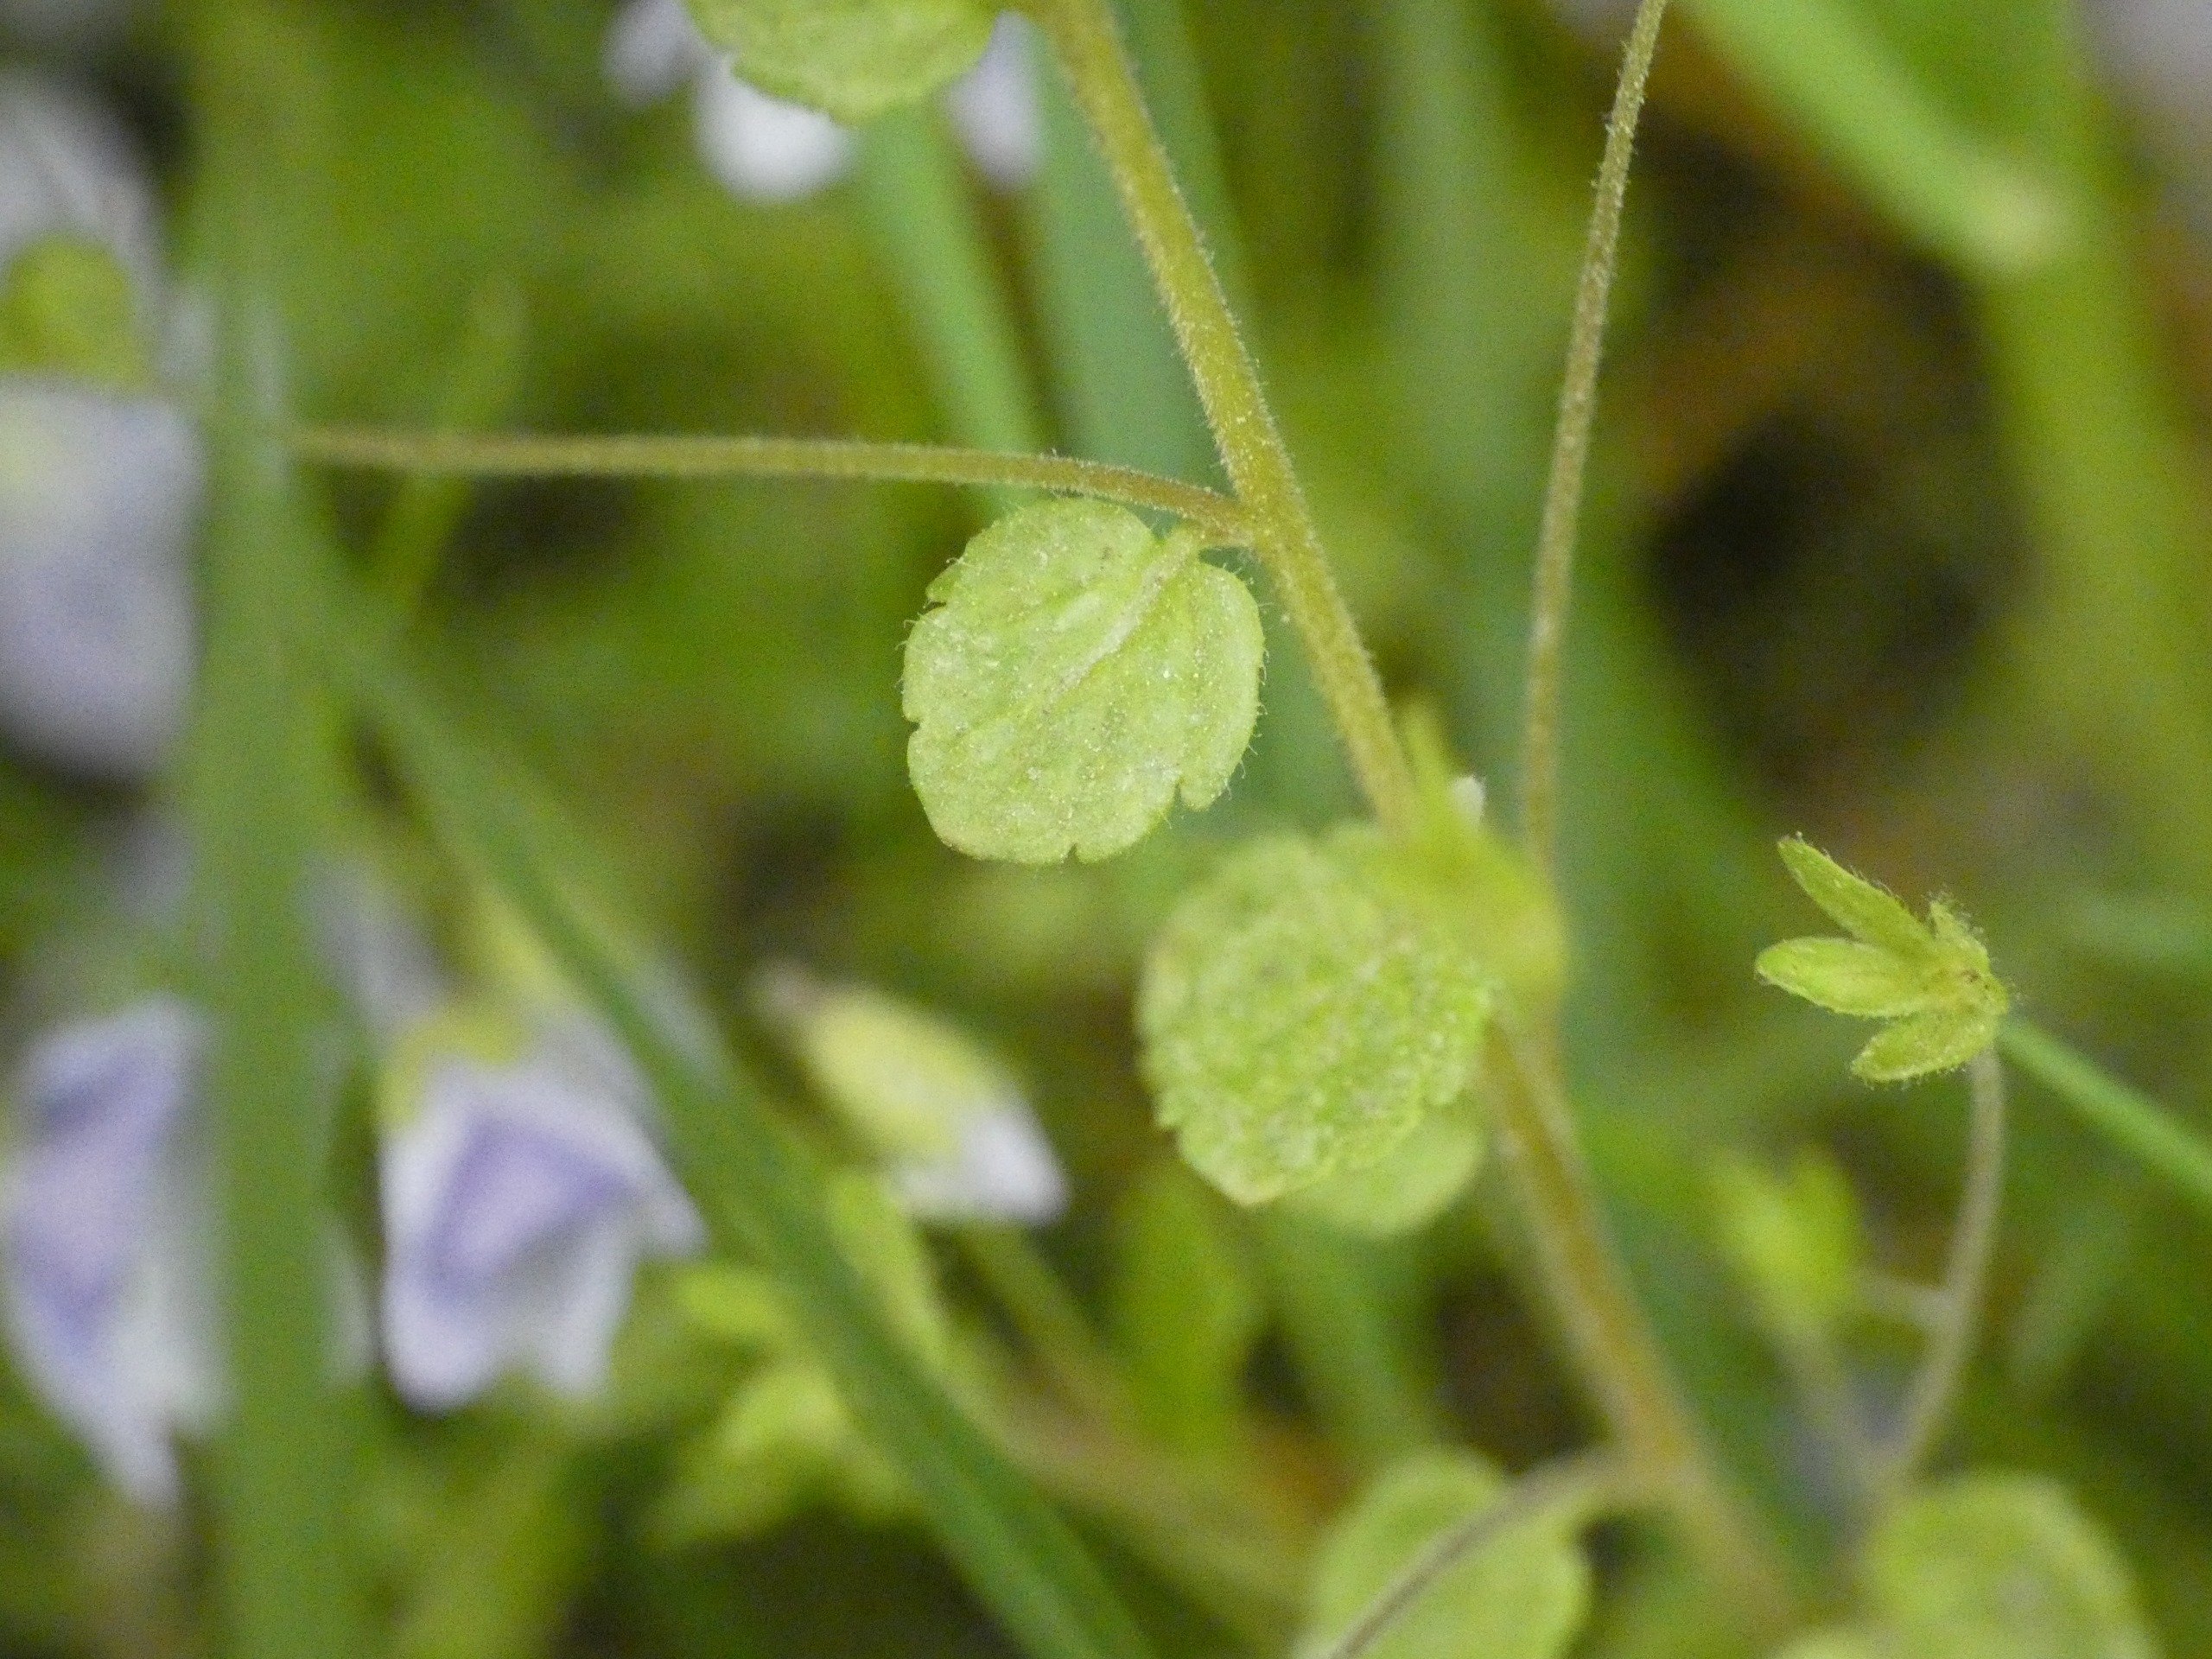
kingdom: Plantae
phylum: Tracheophyta
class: Magnoliopsida
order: Lamiales
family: Plantaginaceae
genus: Veronica
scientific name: Veronica filiformis
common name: Tråd-ærenpris
